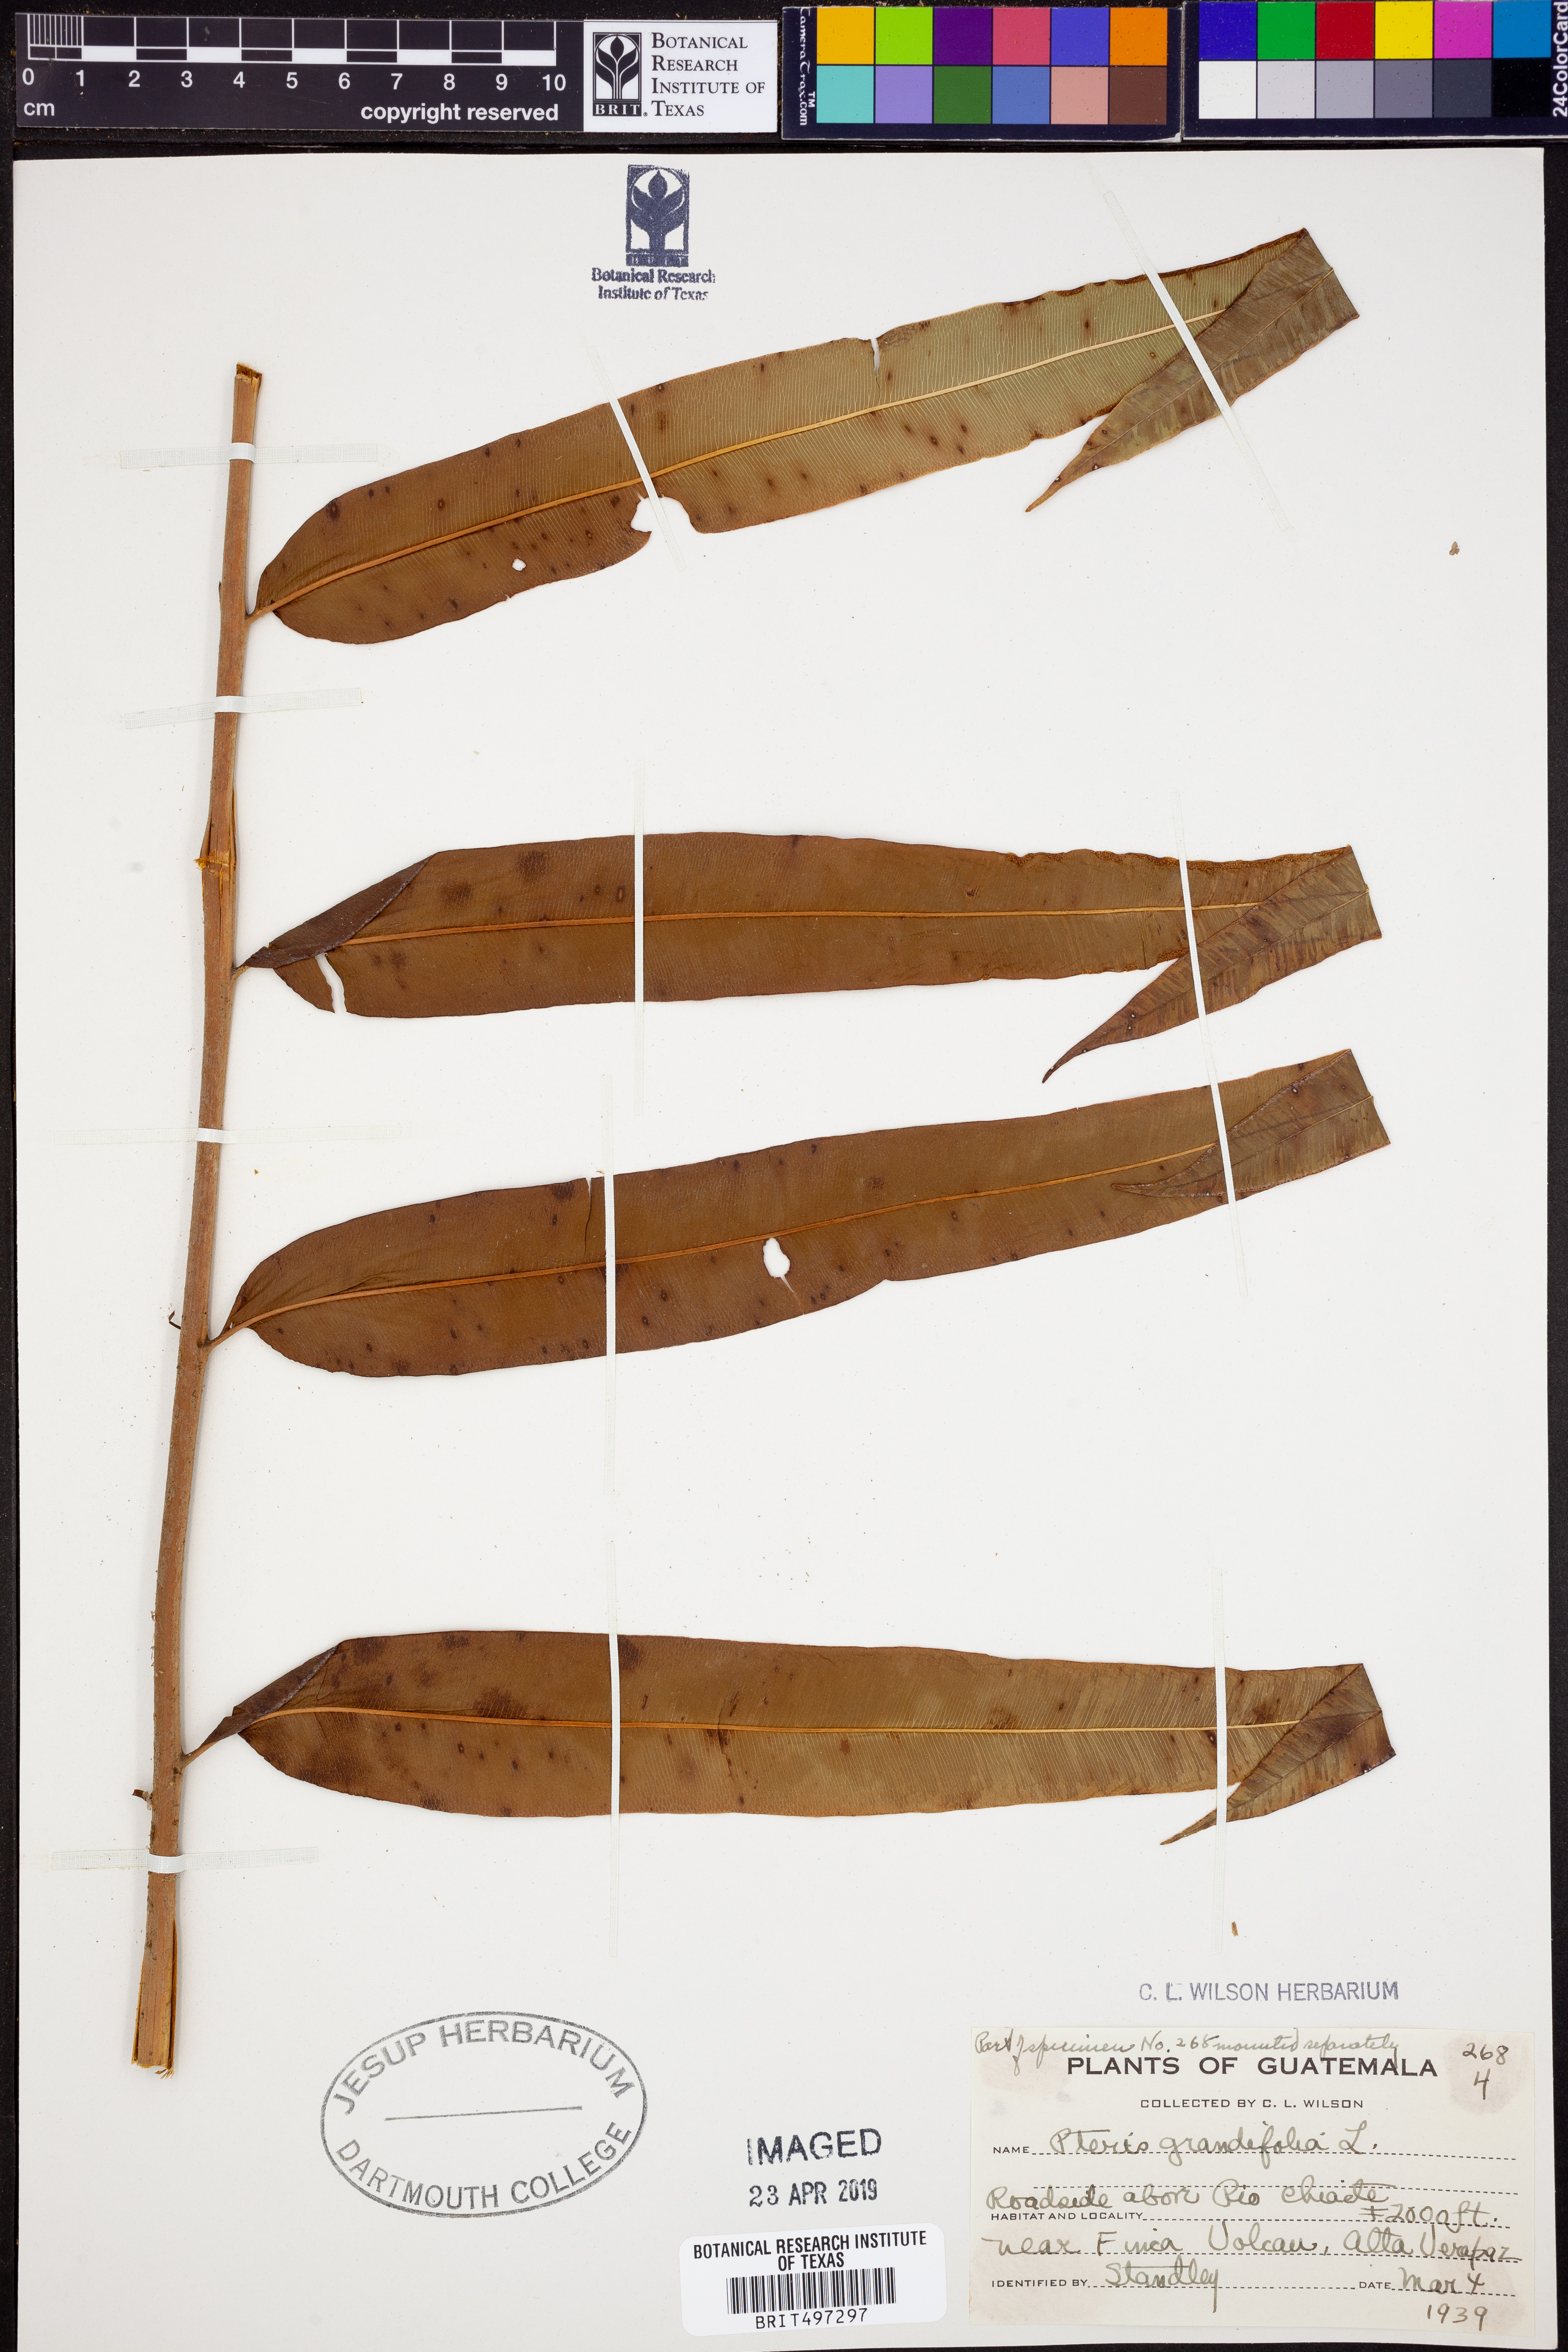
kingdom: Plantae
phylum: Tracheophyta
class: Polypodiopsida
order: Polypodiales
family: Pteridaceae
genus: Pteris
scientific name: Pteris grandifolia
